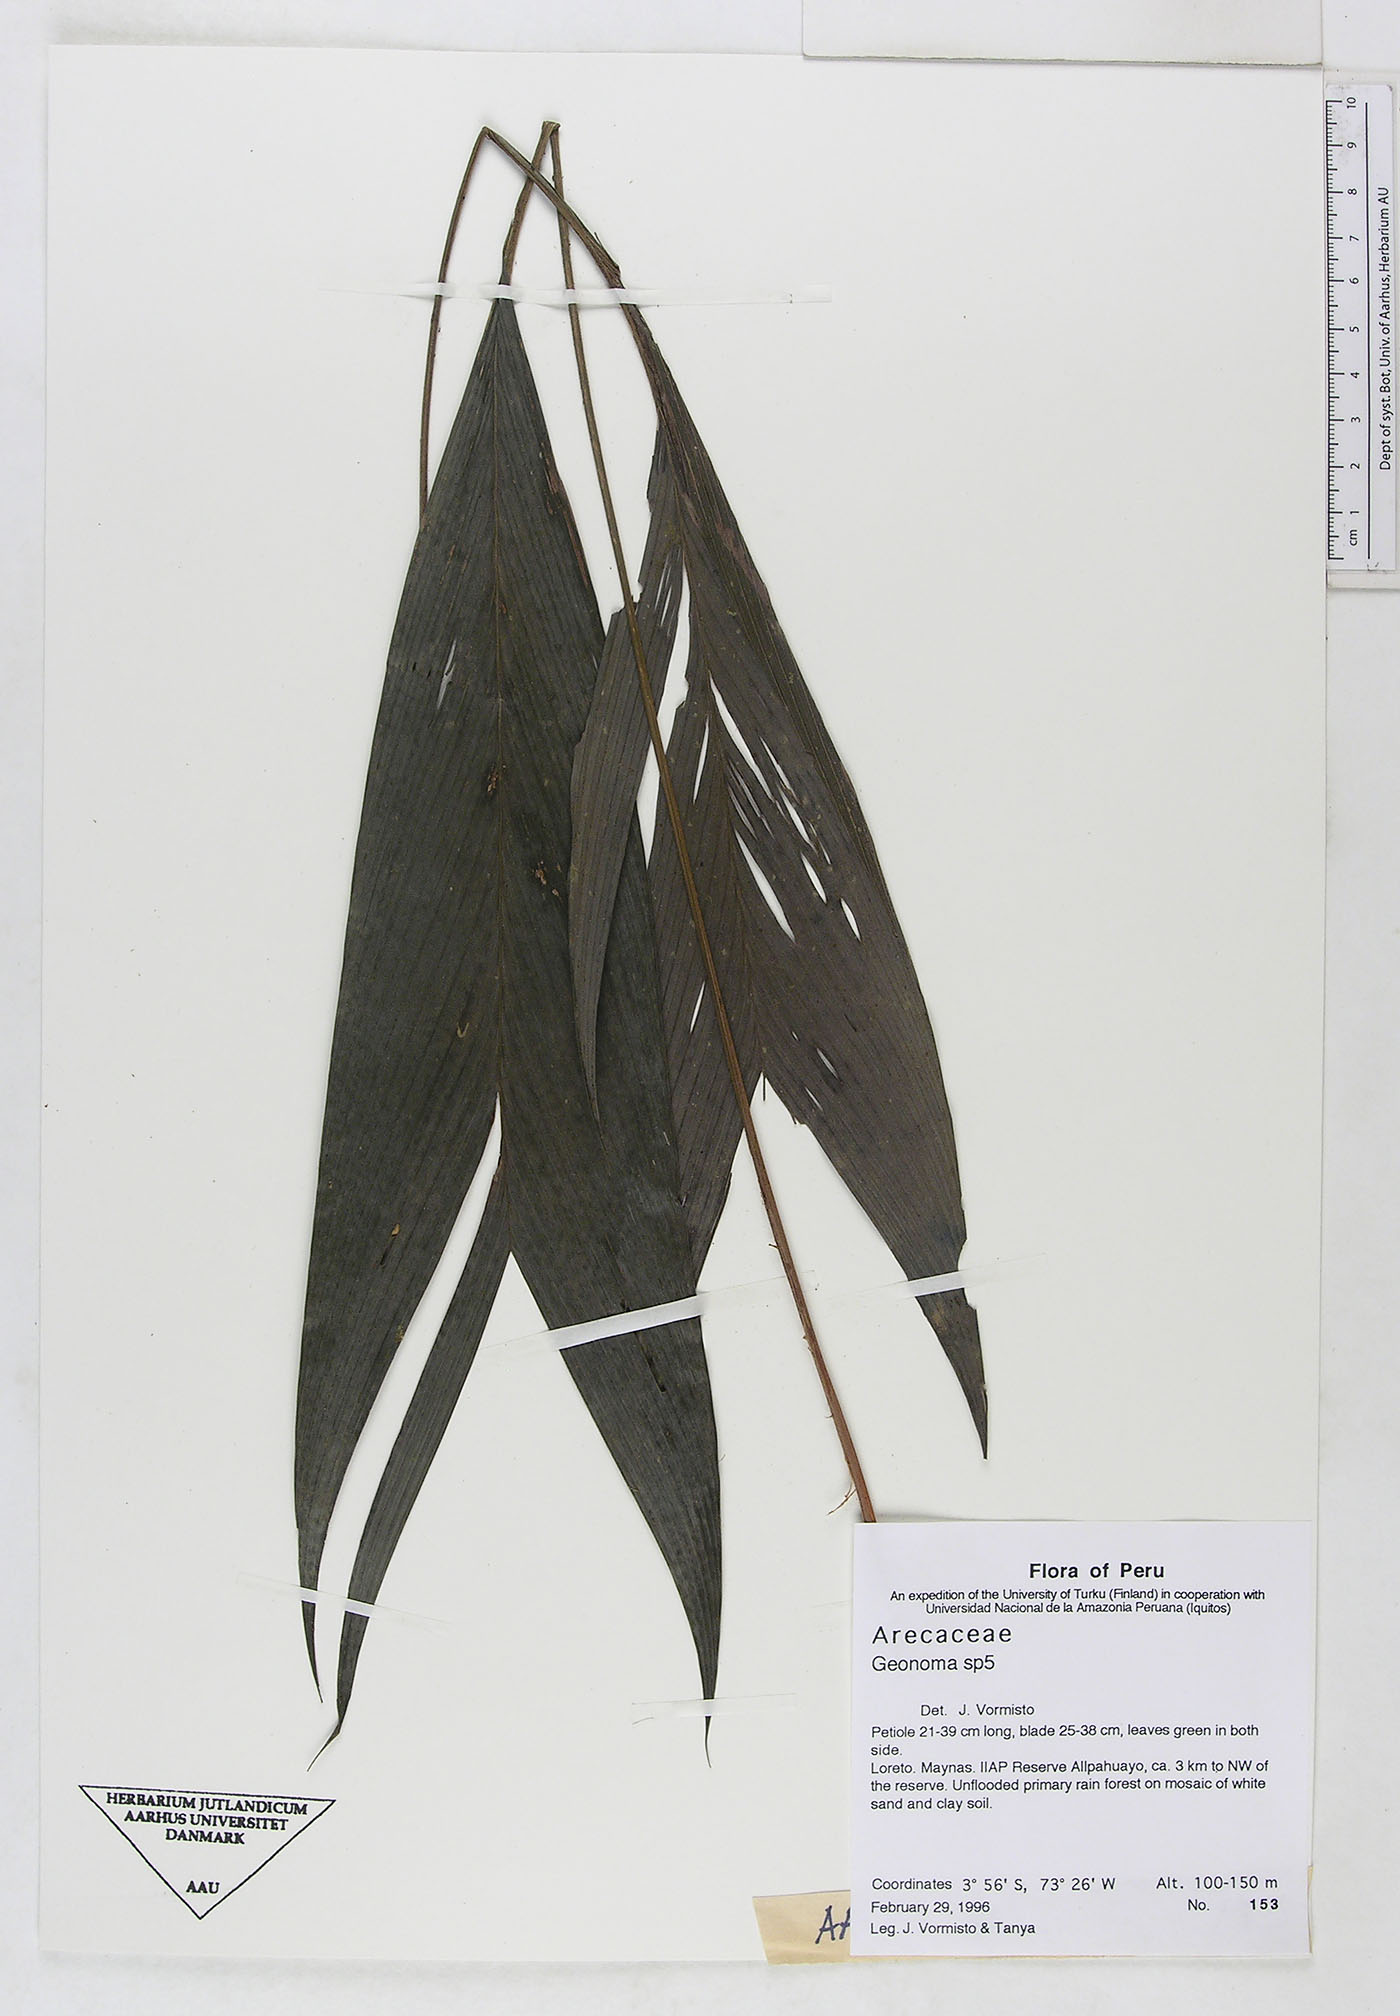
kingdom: Plantae
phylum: Tracheophyta
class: Liliopsida
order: Arecales
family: Arecaceae
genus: Bactris
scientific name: Bactris
